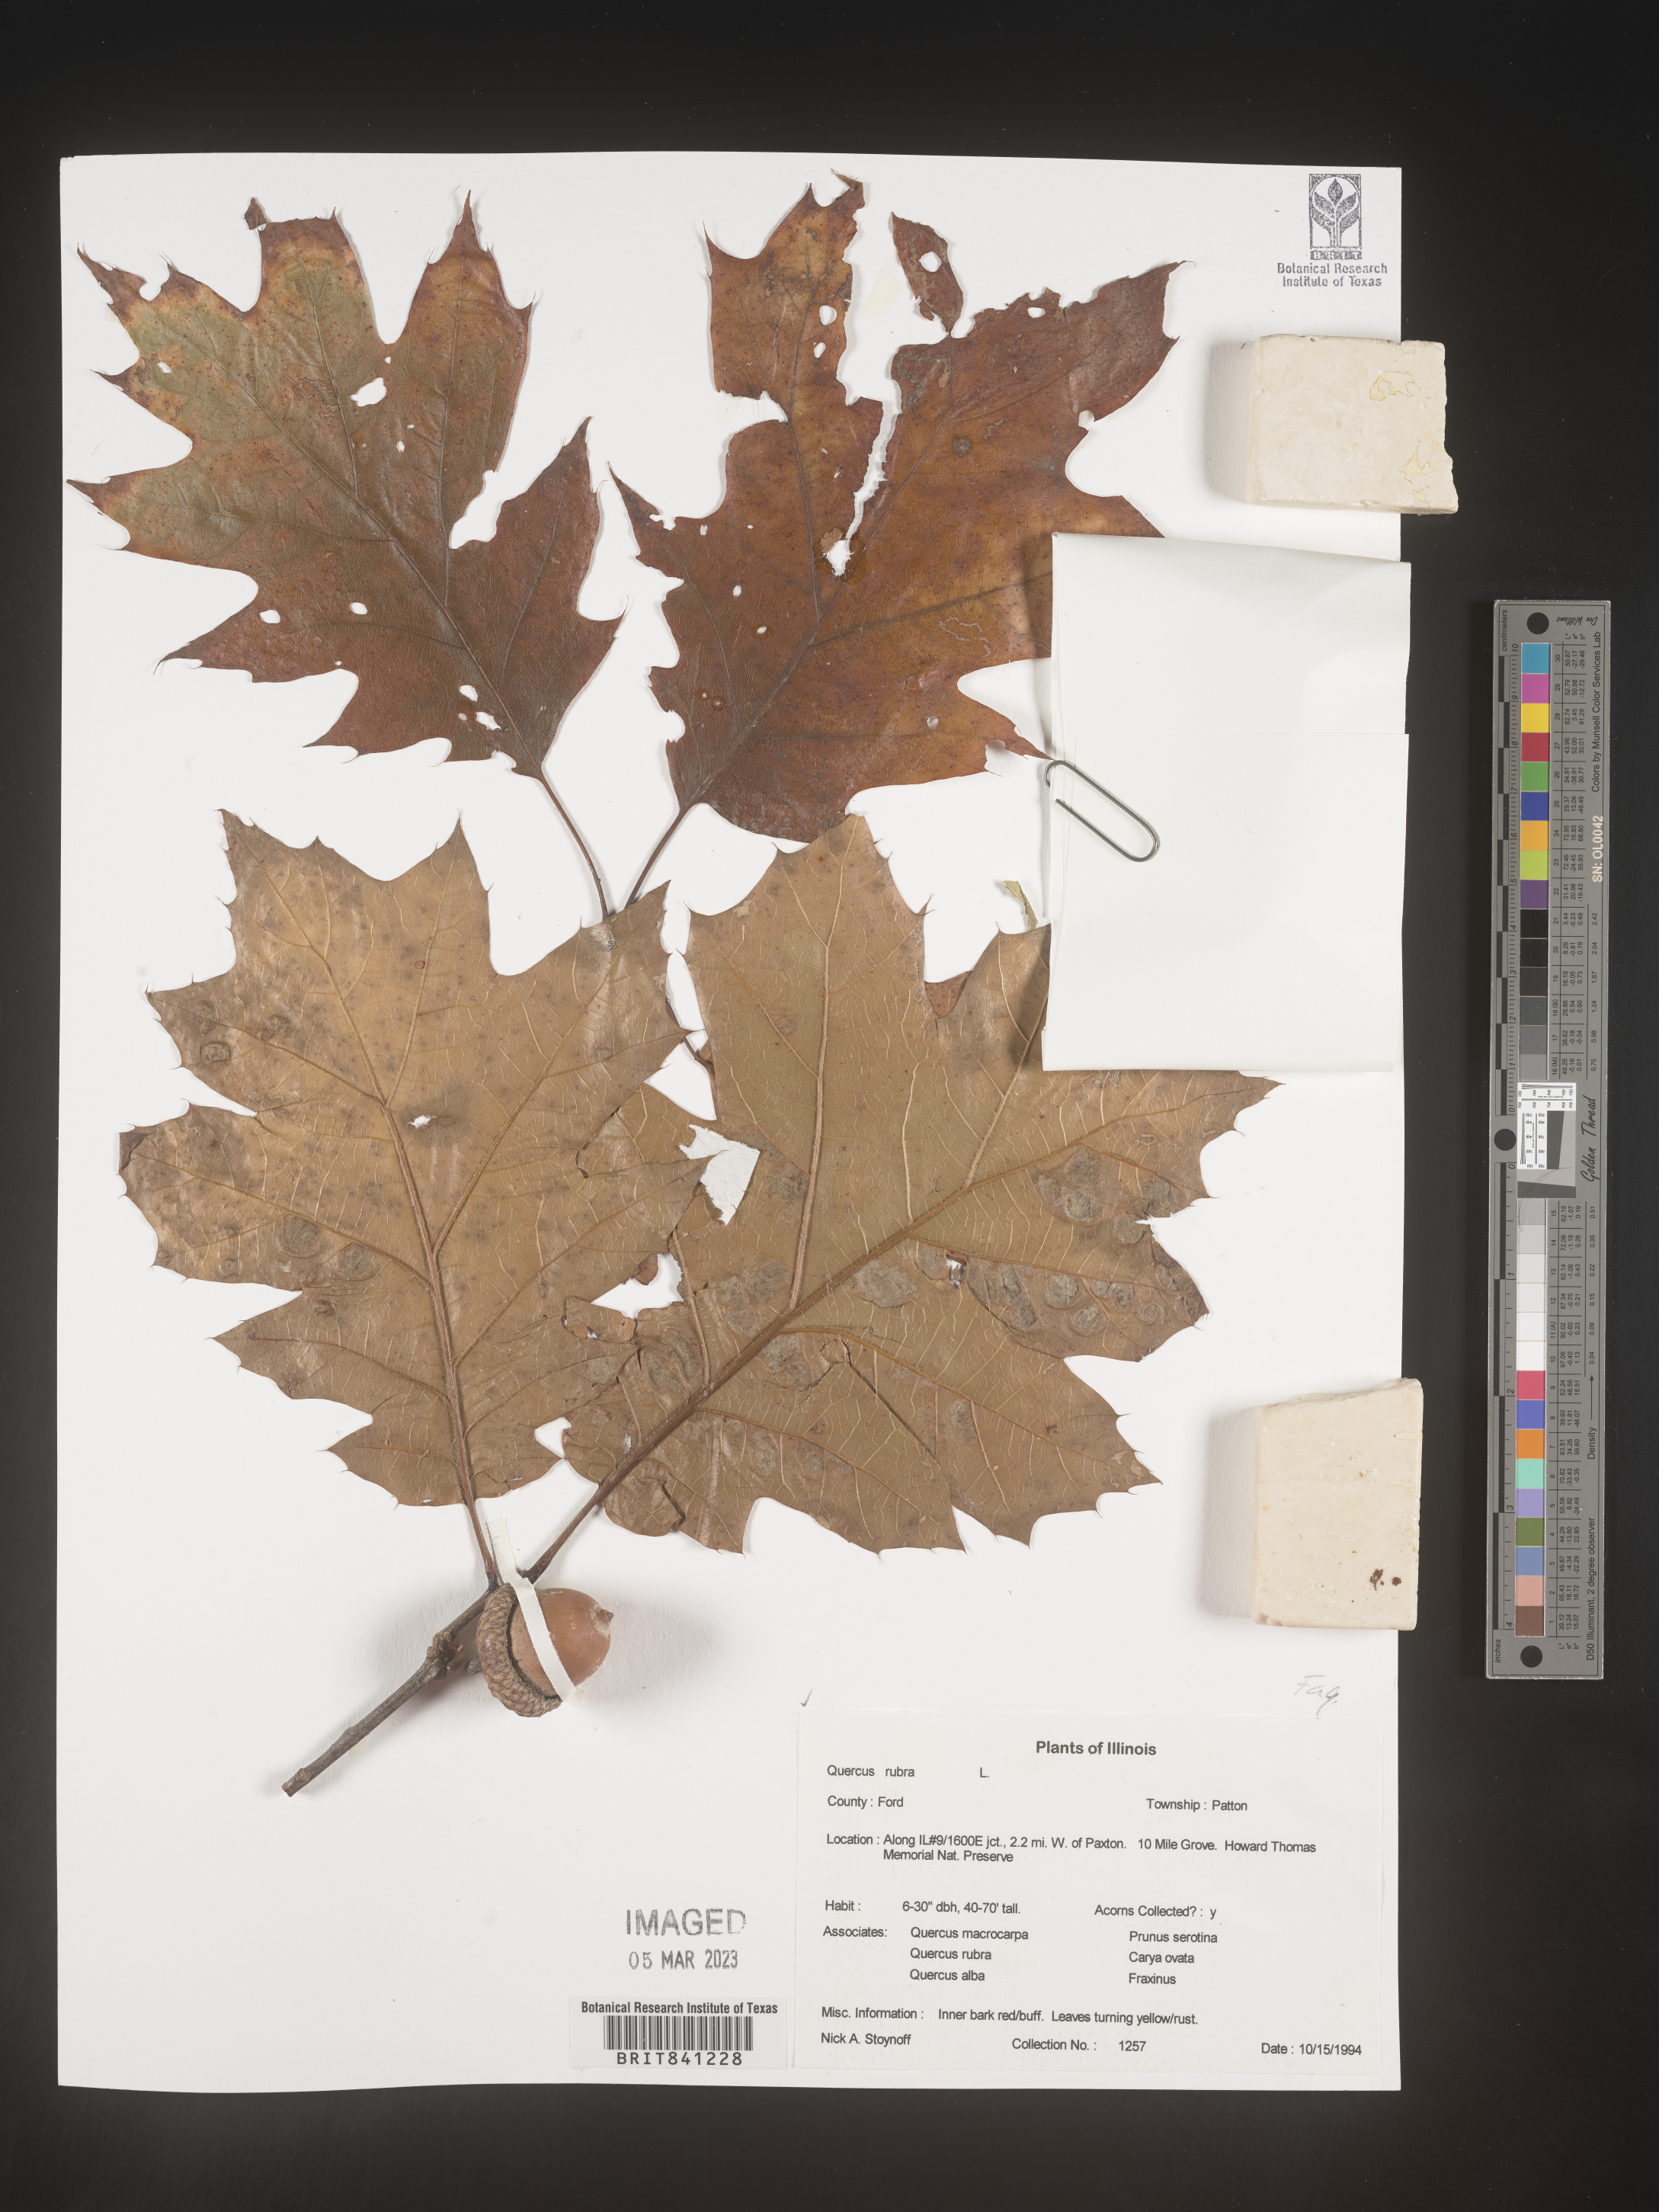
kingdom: Plantae
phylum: Tracheophyta
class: Magnoliopsida
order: Fagales
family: Fagaceae
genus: Quercus
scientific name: Quercus rubra
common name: Red oak
